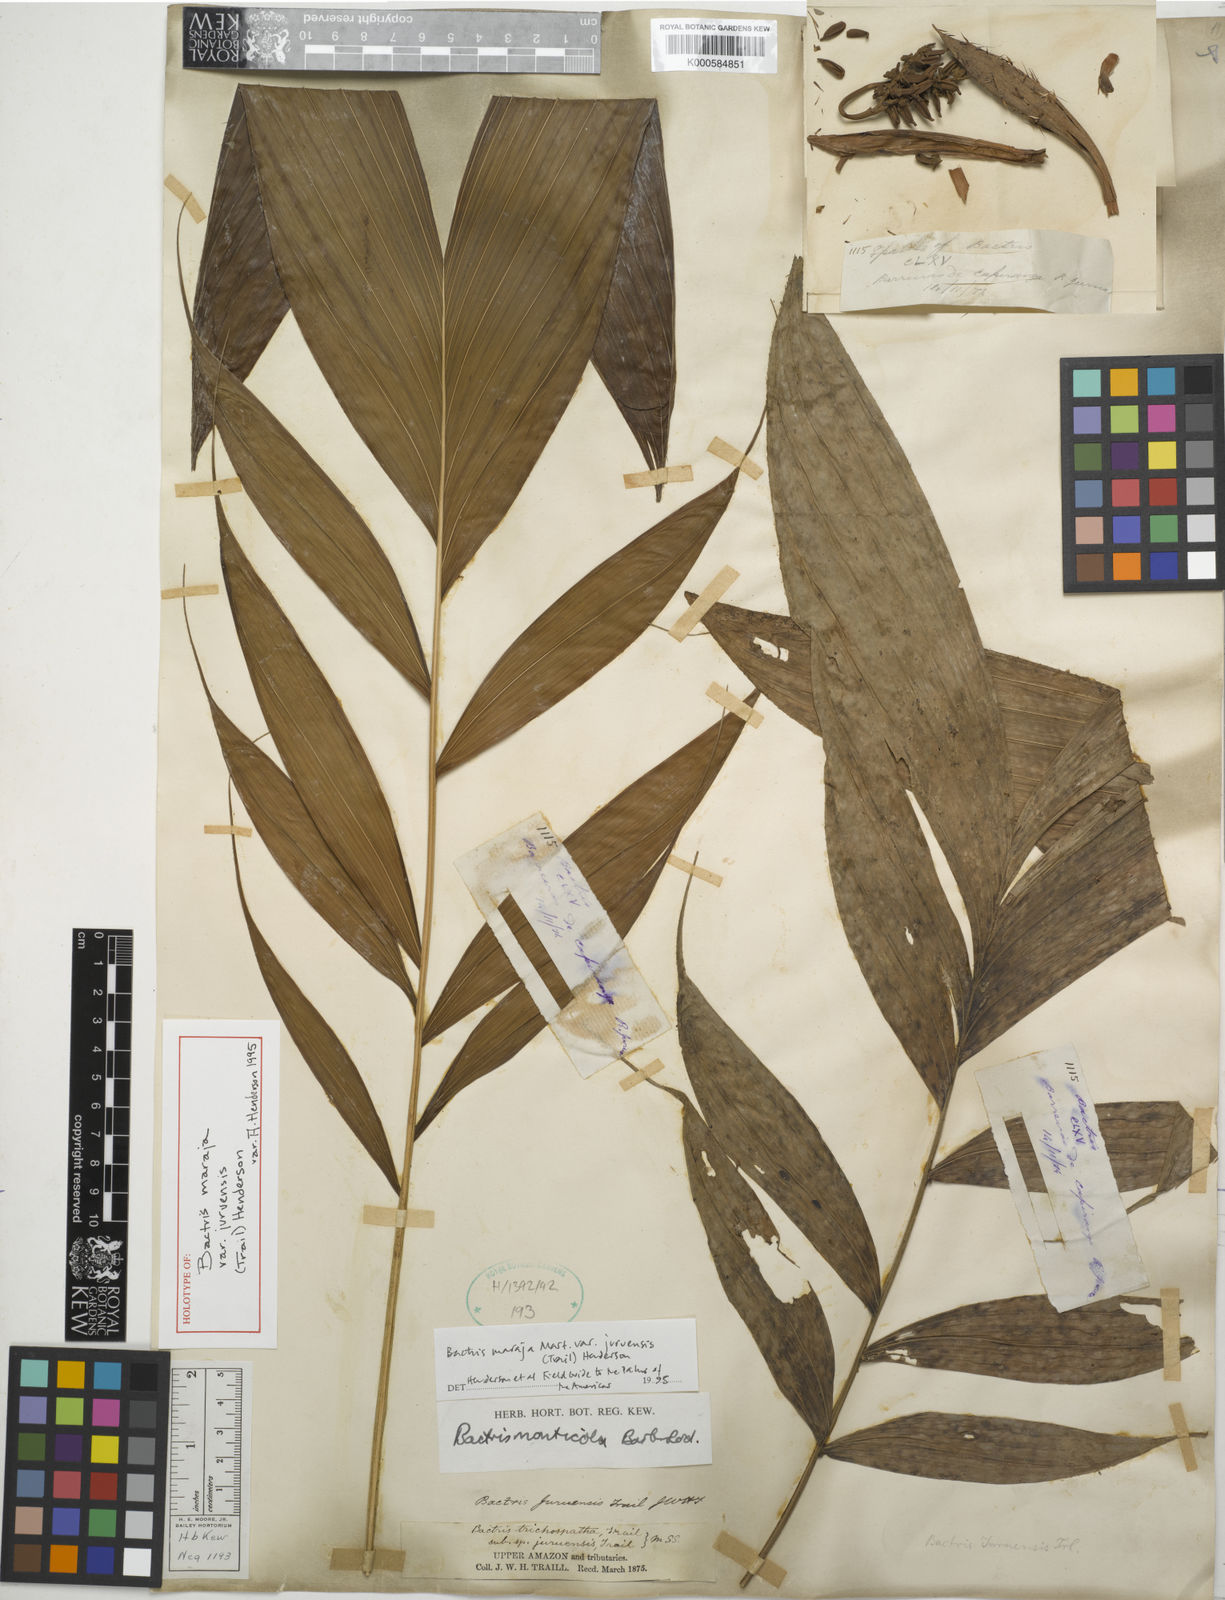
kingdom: Plantae
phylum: Tracheophyta
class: Liliopsida
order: Arecales
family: Arecaceae
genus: Bactris
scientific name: Bactris maraja
